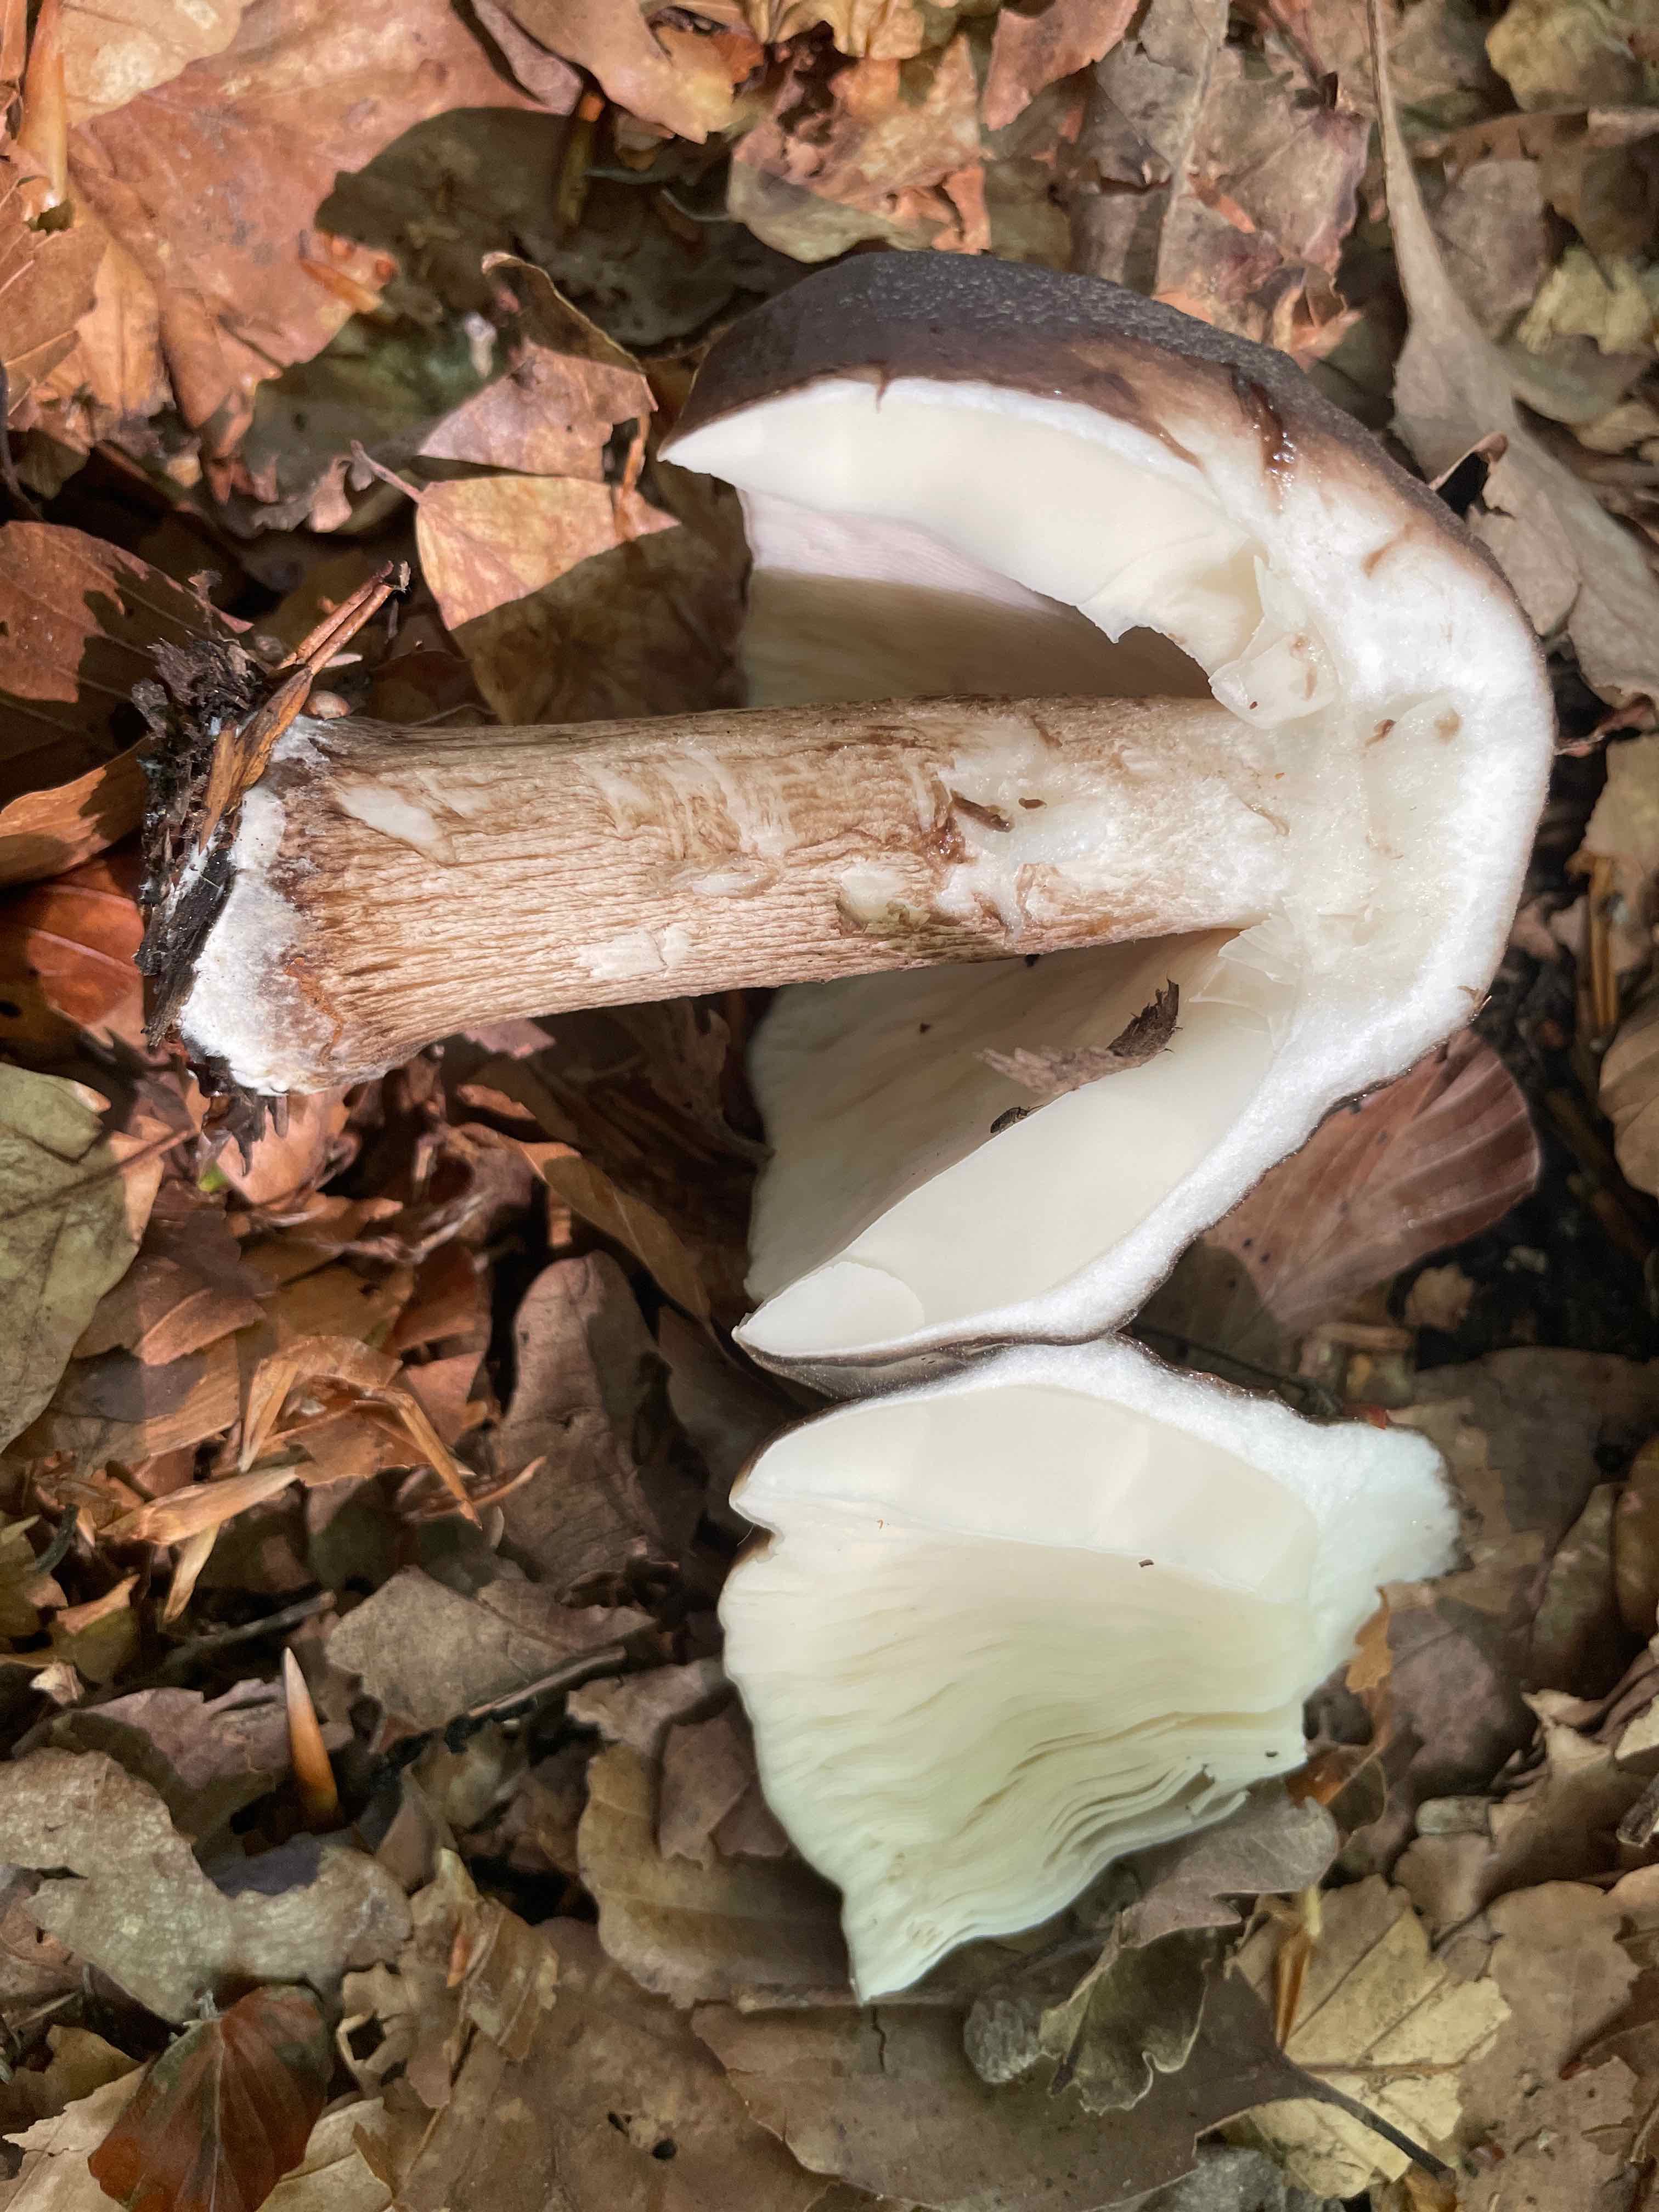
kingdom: Fungi
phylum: Basidiomycota
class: Agaricomycetes
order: Agaricales
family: Pluteaceae
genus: Pluteus
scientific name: Pluteus cervinus
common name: sodfarvet skærmhat
